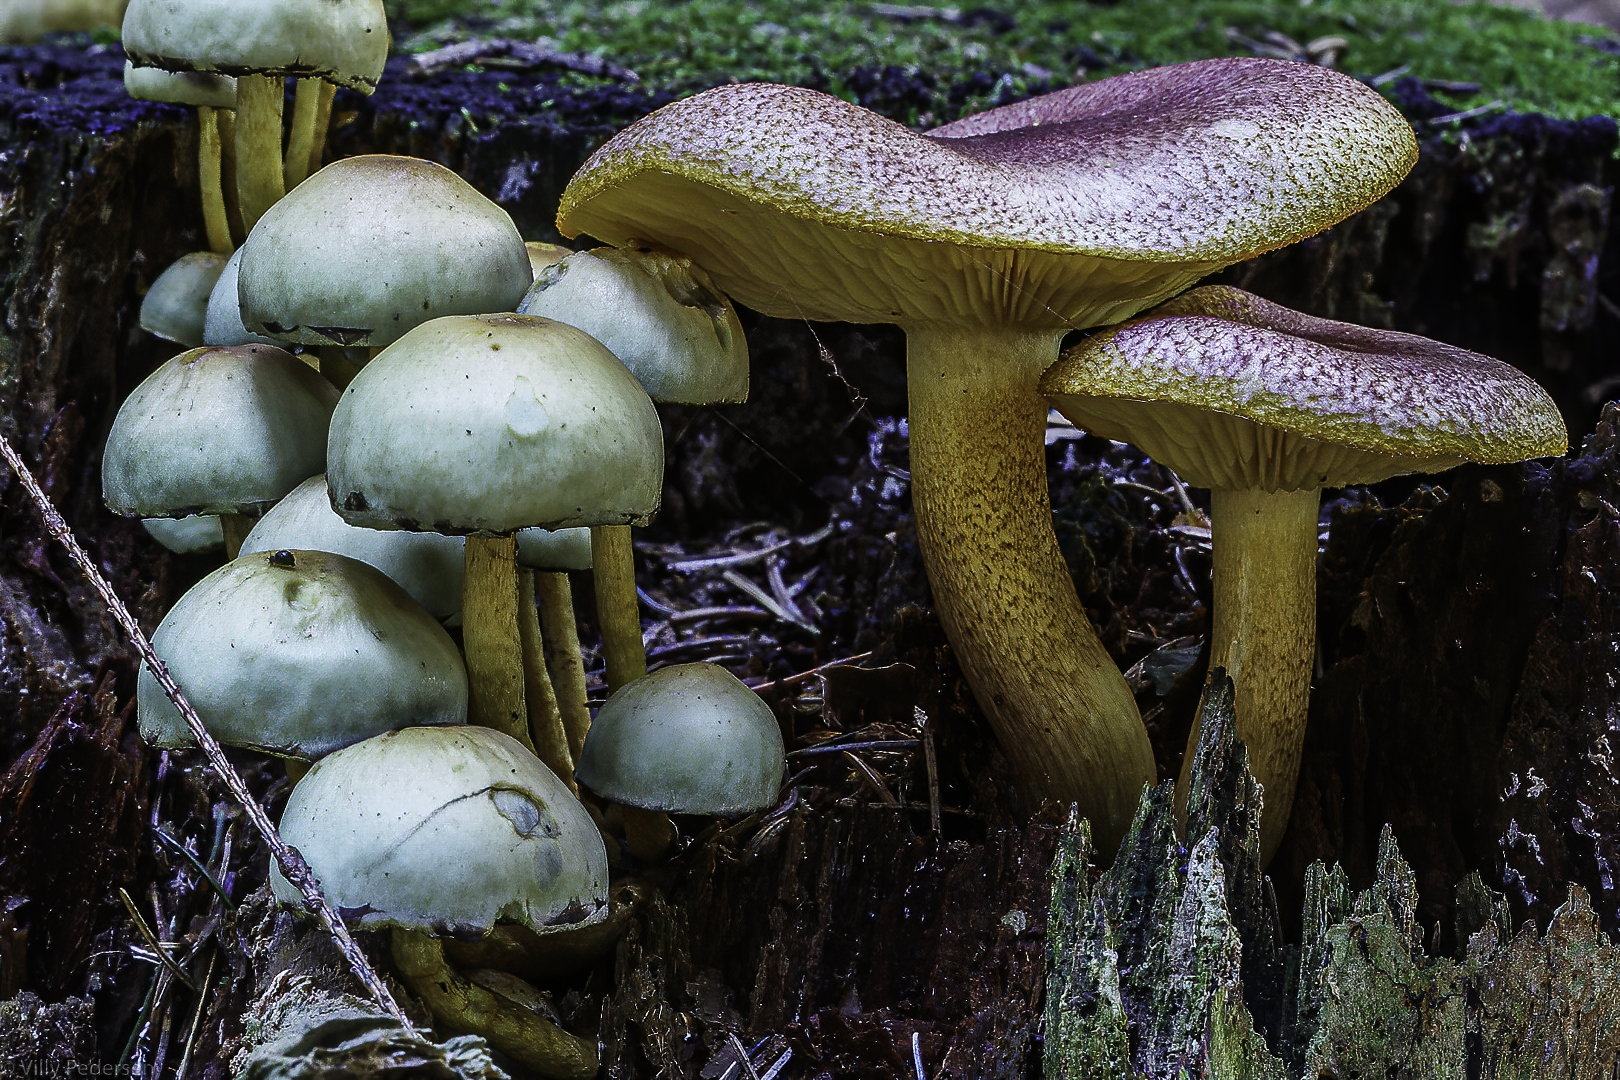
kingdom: Fungi
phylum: Basidiomycota
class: Agaricomycetes
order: Agaricales
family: Tricholomataceae
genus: Tricholomopsis
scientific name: Tricholomopsis rutilans
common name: purpur-væbnerhat
